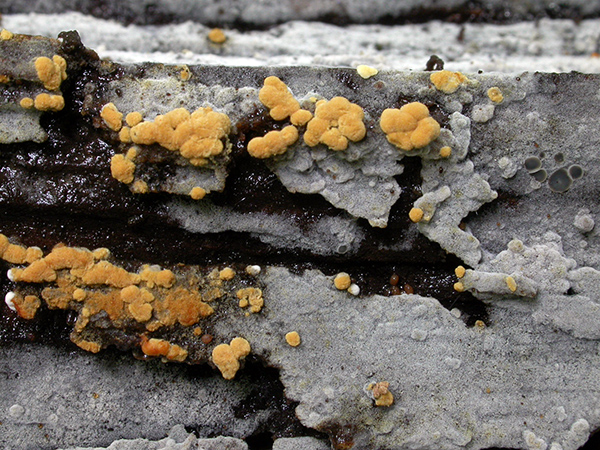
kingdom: Fungi
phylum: Basidiomycota
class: Agaricomycetes
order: Cantharellales
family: Botryobasidiaceae
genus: Botryobasidium
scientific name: Botryobasidium aureum
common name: gylden spindhinde
